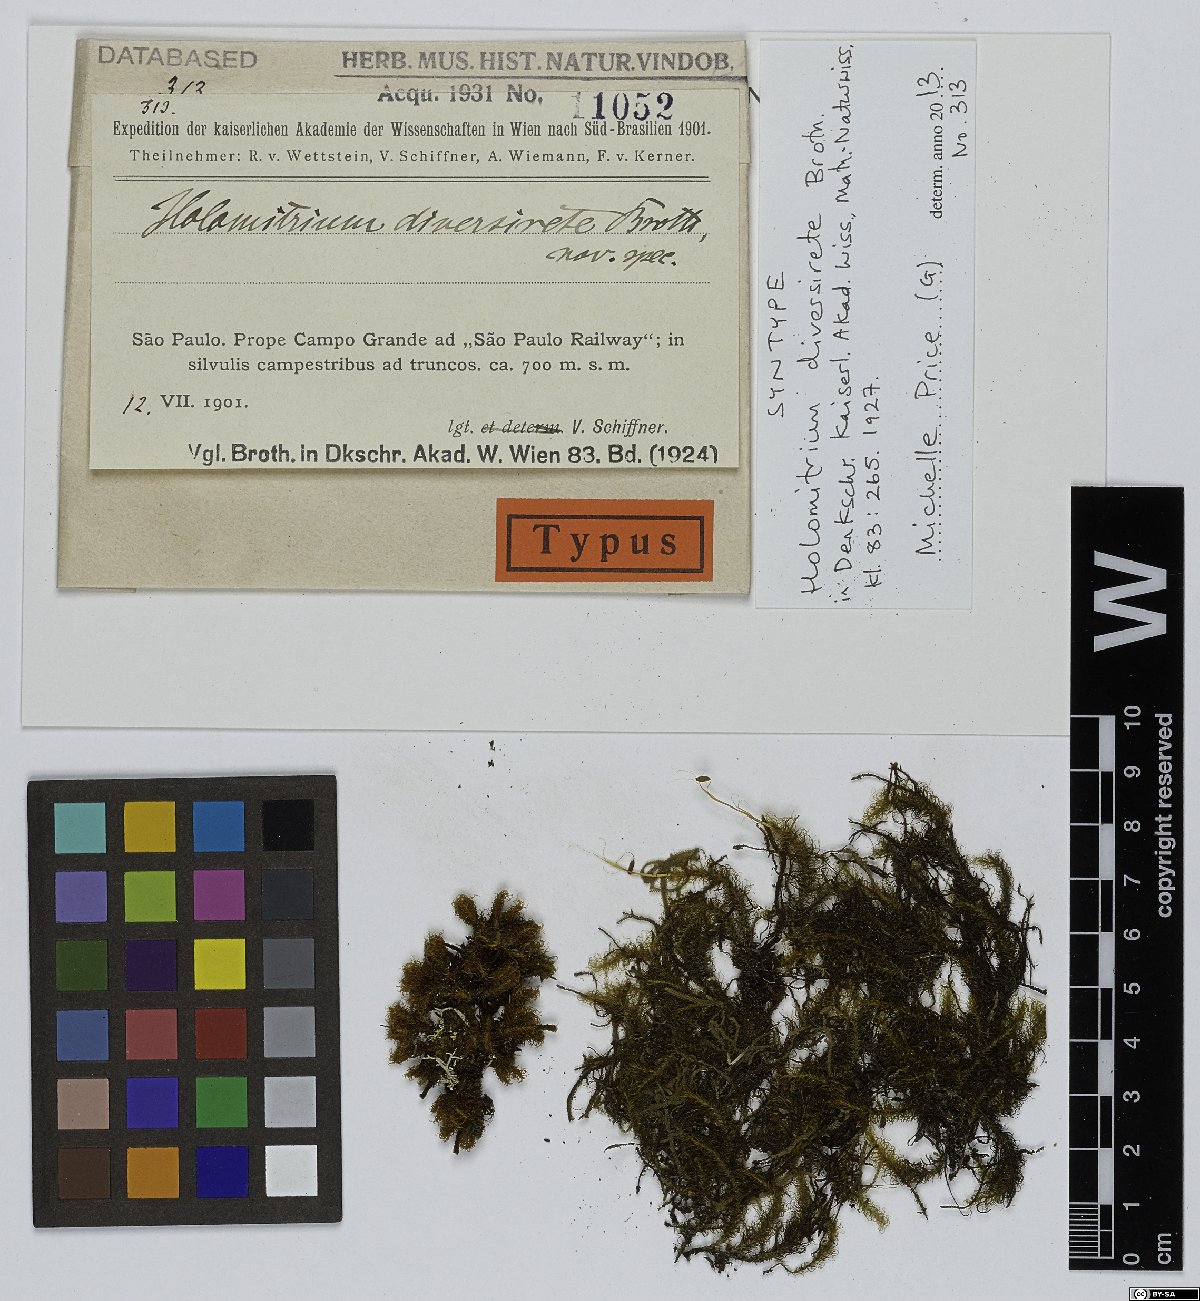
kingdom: Plantae
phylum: Bryophyta
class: Bryopsida
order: Dicranales
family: Dicranaceae
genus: Holomitrium
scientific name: Holomitrium diversirete
